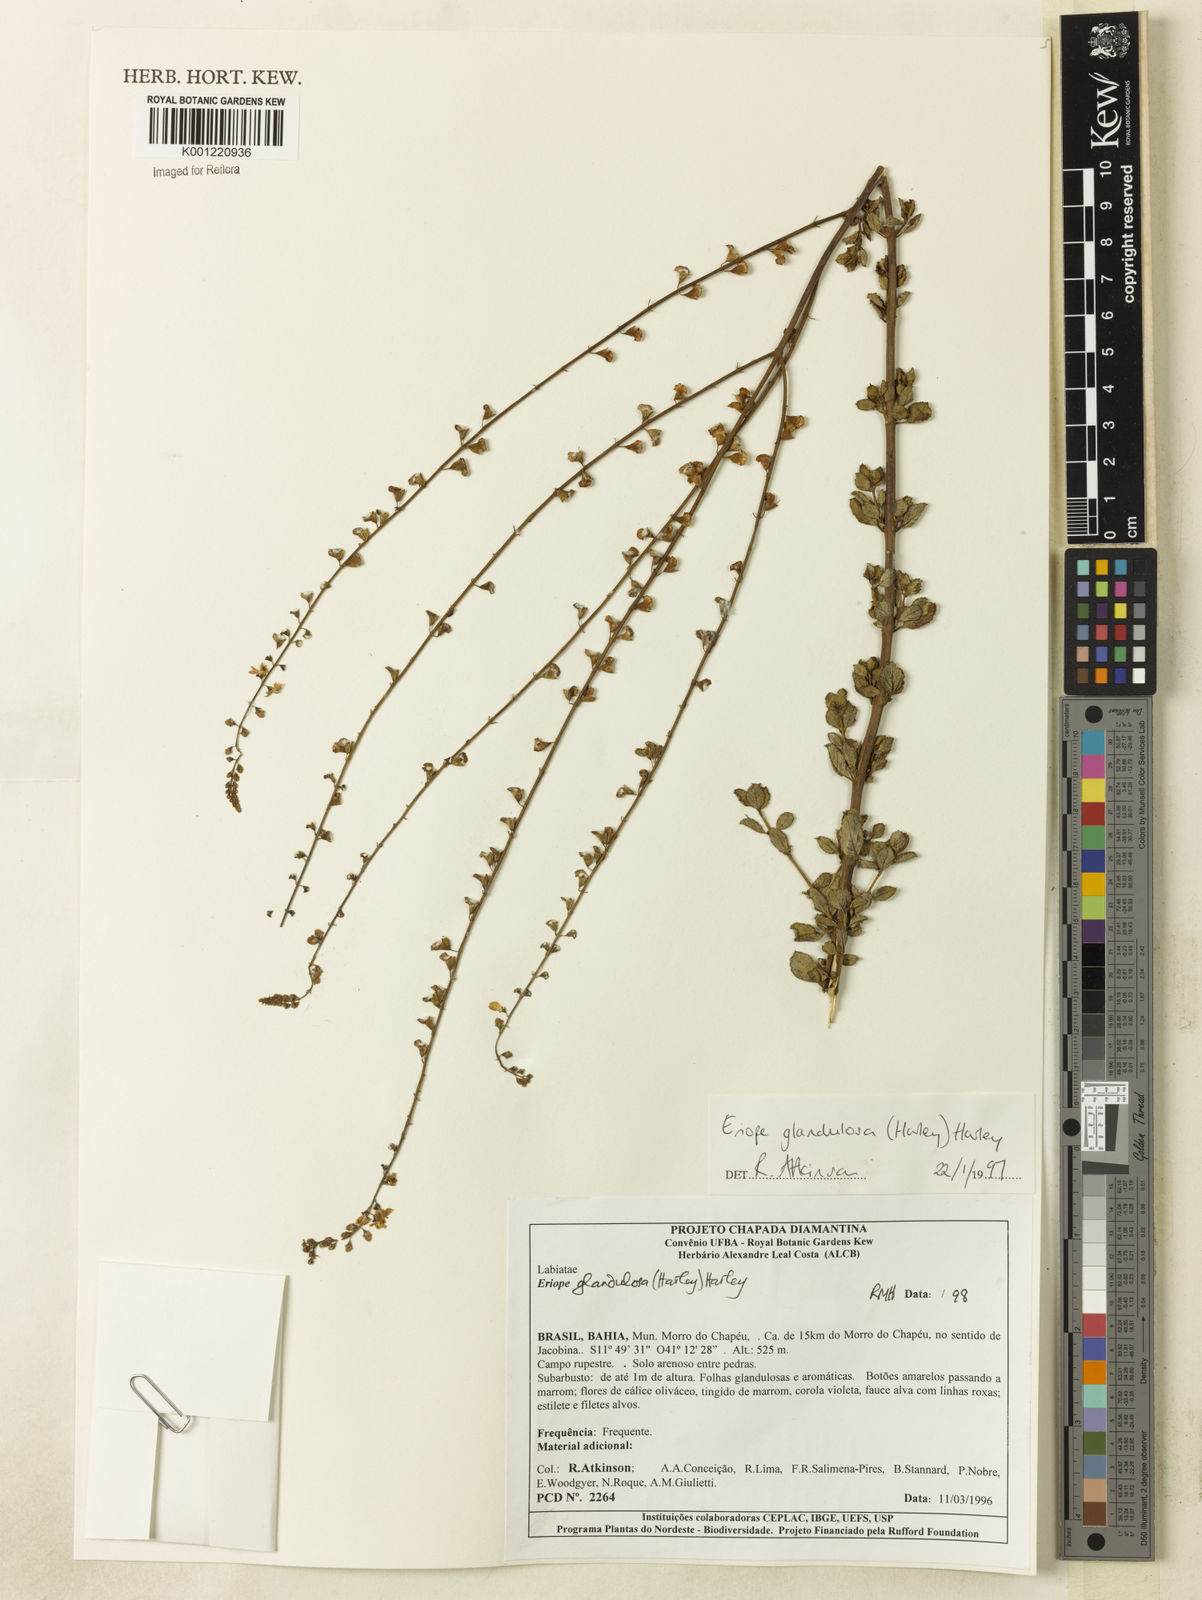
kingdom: Plantae
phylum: Tracheophyta
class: Magnoliopsida
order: Lamiales
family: Lamiaceae
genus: Eriope
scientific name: Eriope glandulosa
